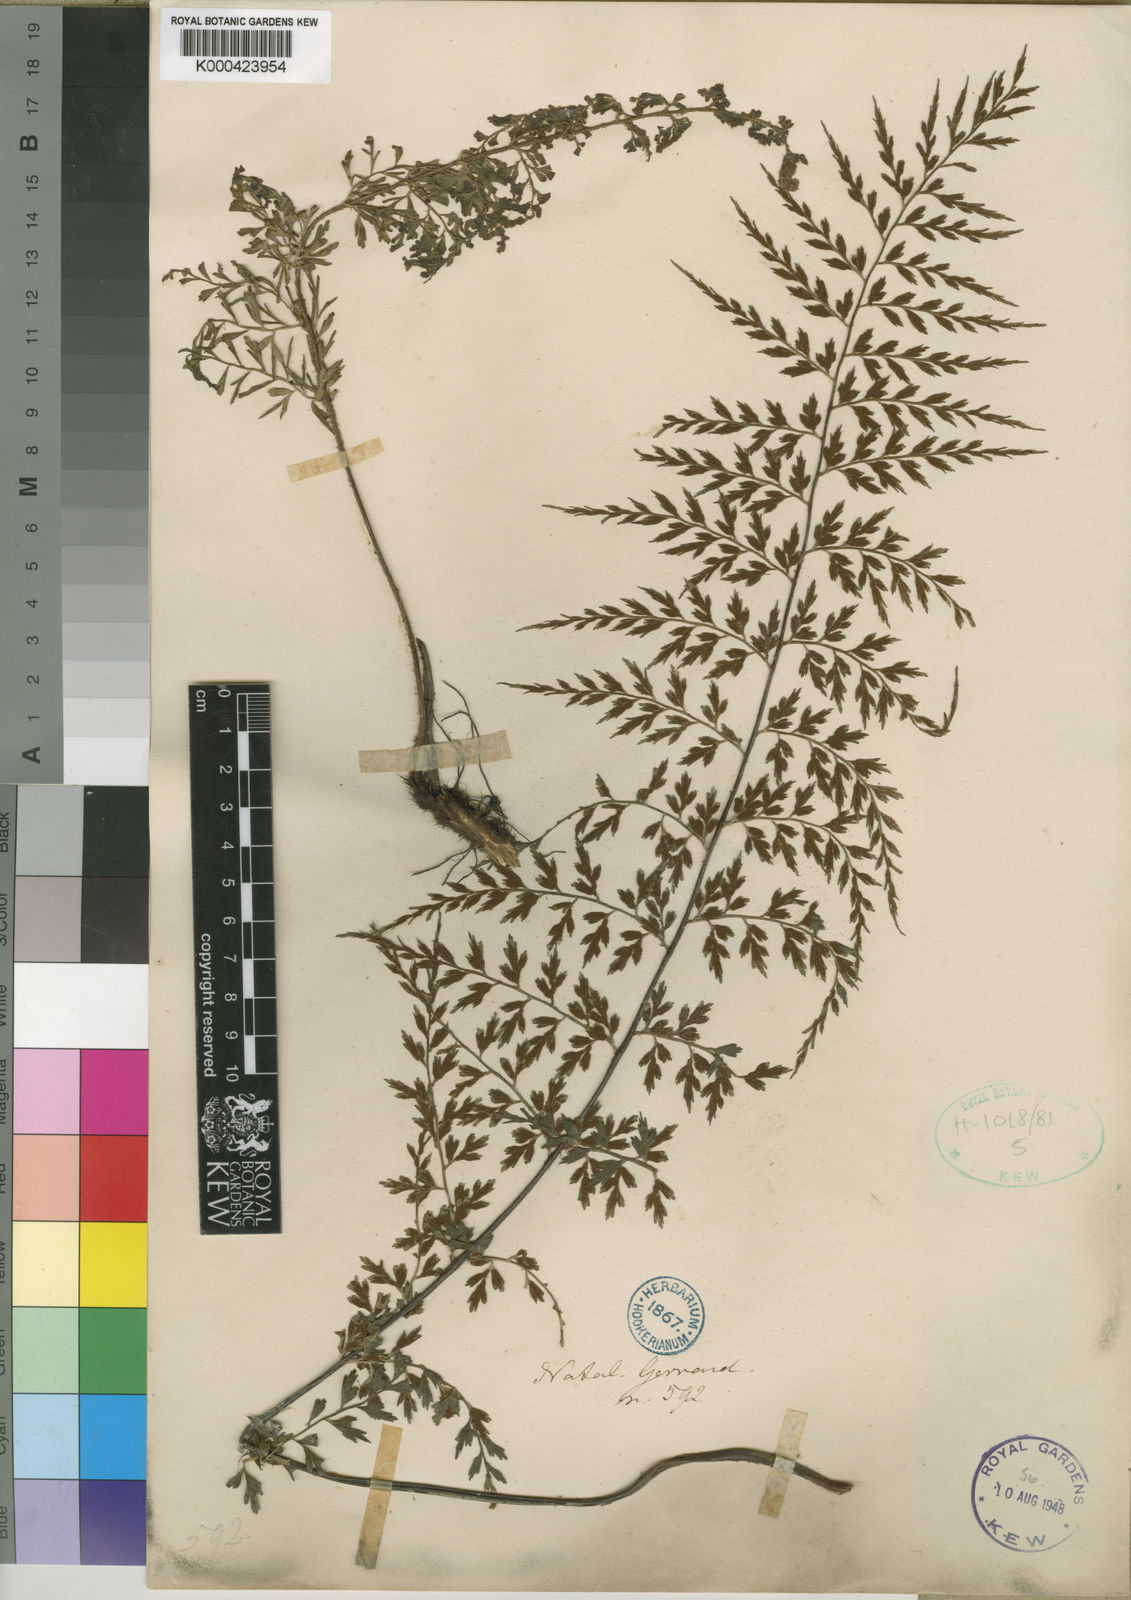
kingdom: Plantae
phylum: Tracheophyta
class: Polypodiopsida
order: Polypodiales
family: Aspleniaceae
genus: Asplenium
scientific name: Asplenium aethiopicum
